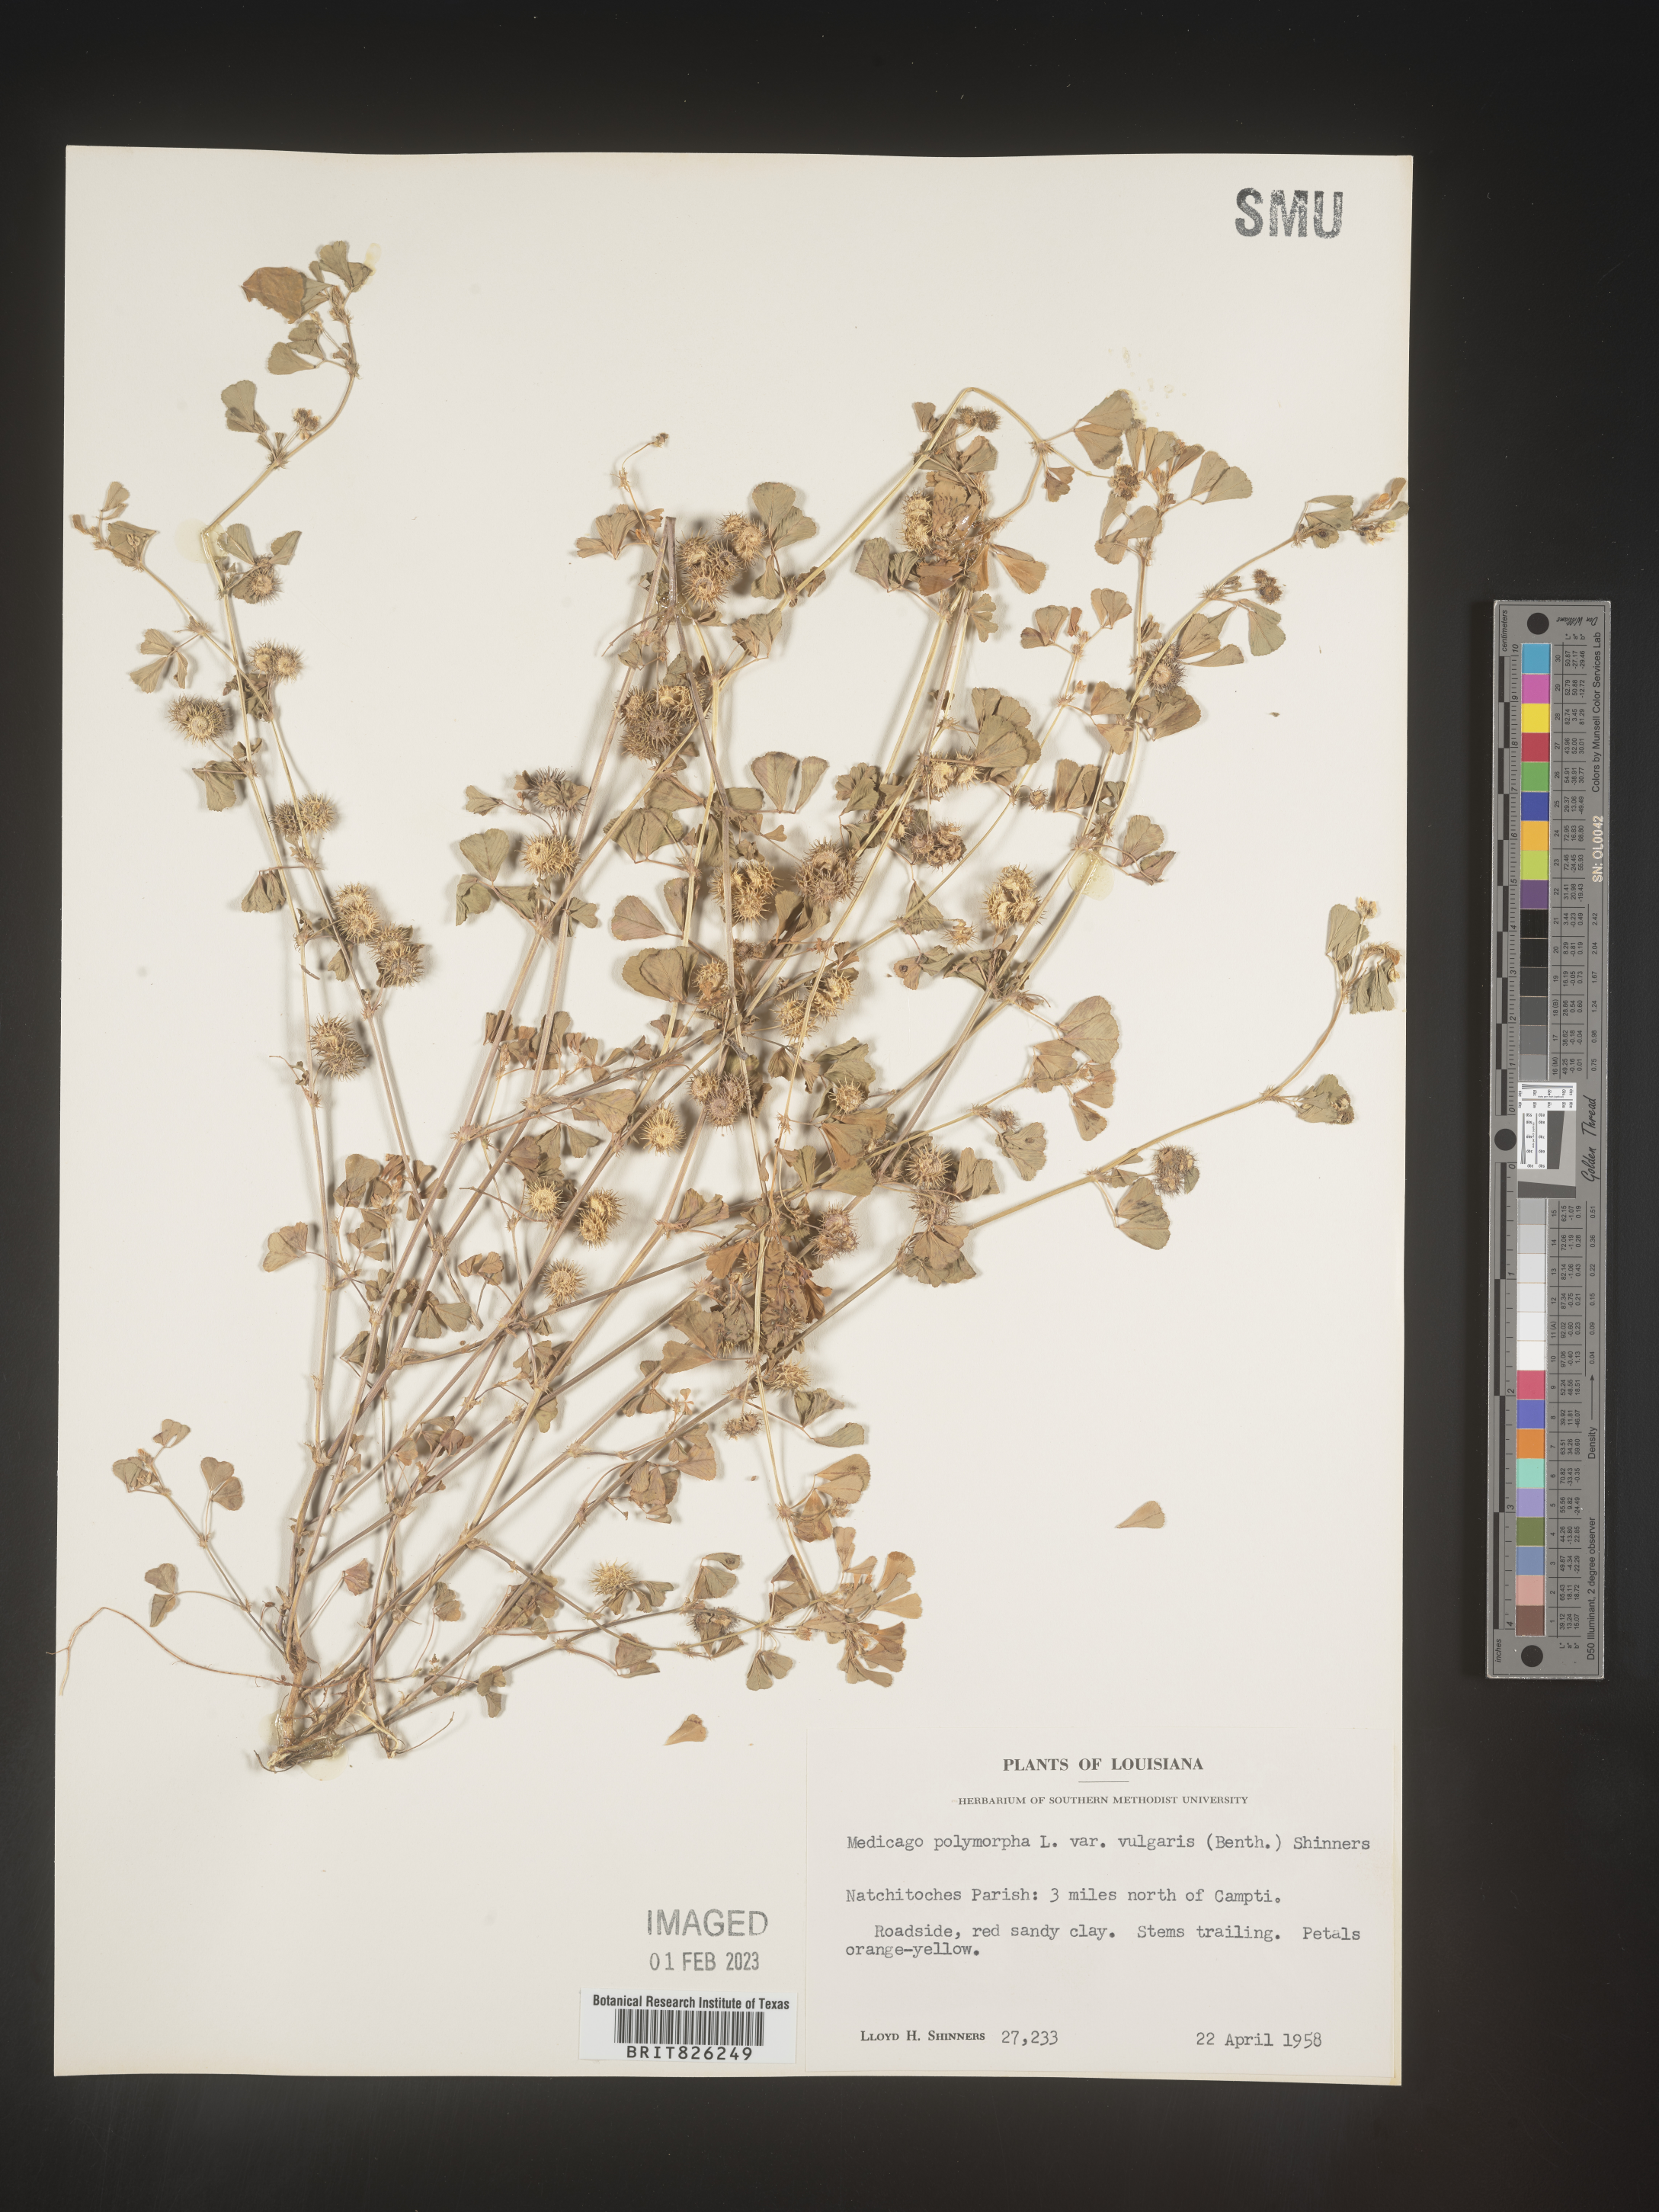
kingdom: Plantae
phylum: Tracheophyta
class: Magnoliopsida
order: Fabales
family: Fabaceae
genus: Medicago
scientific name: Medicago polymorpha
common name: Burclover
